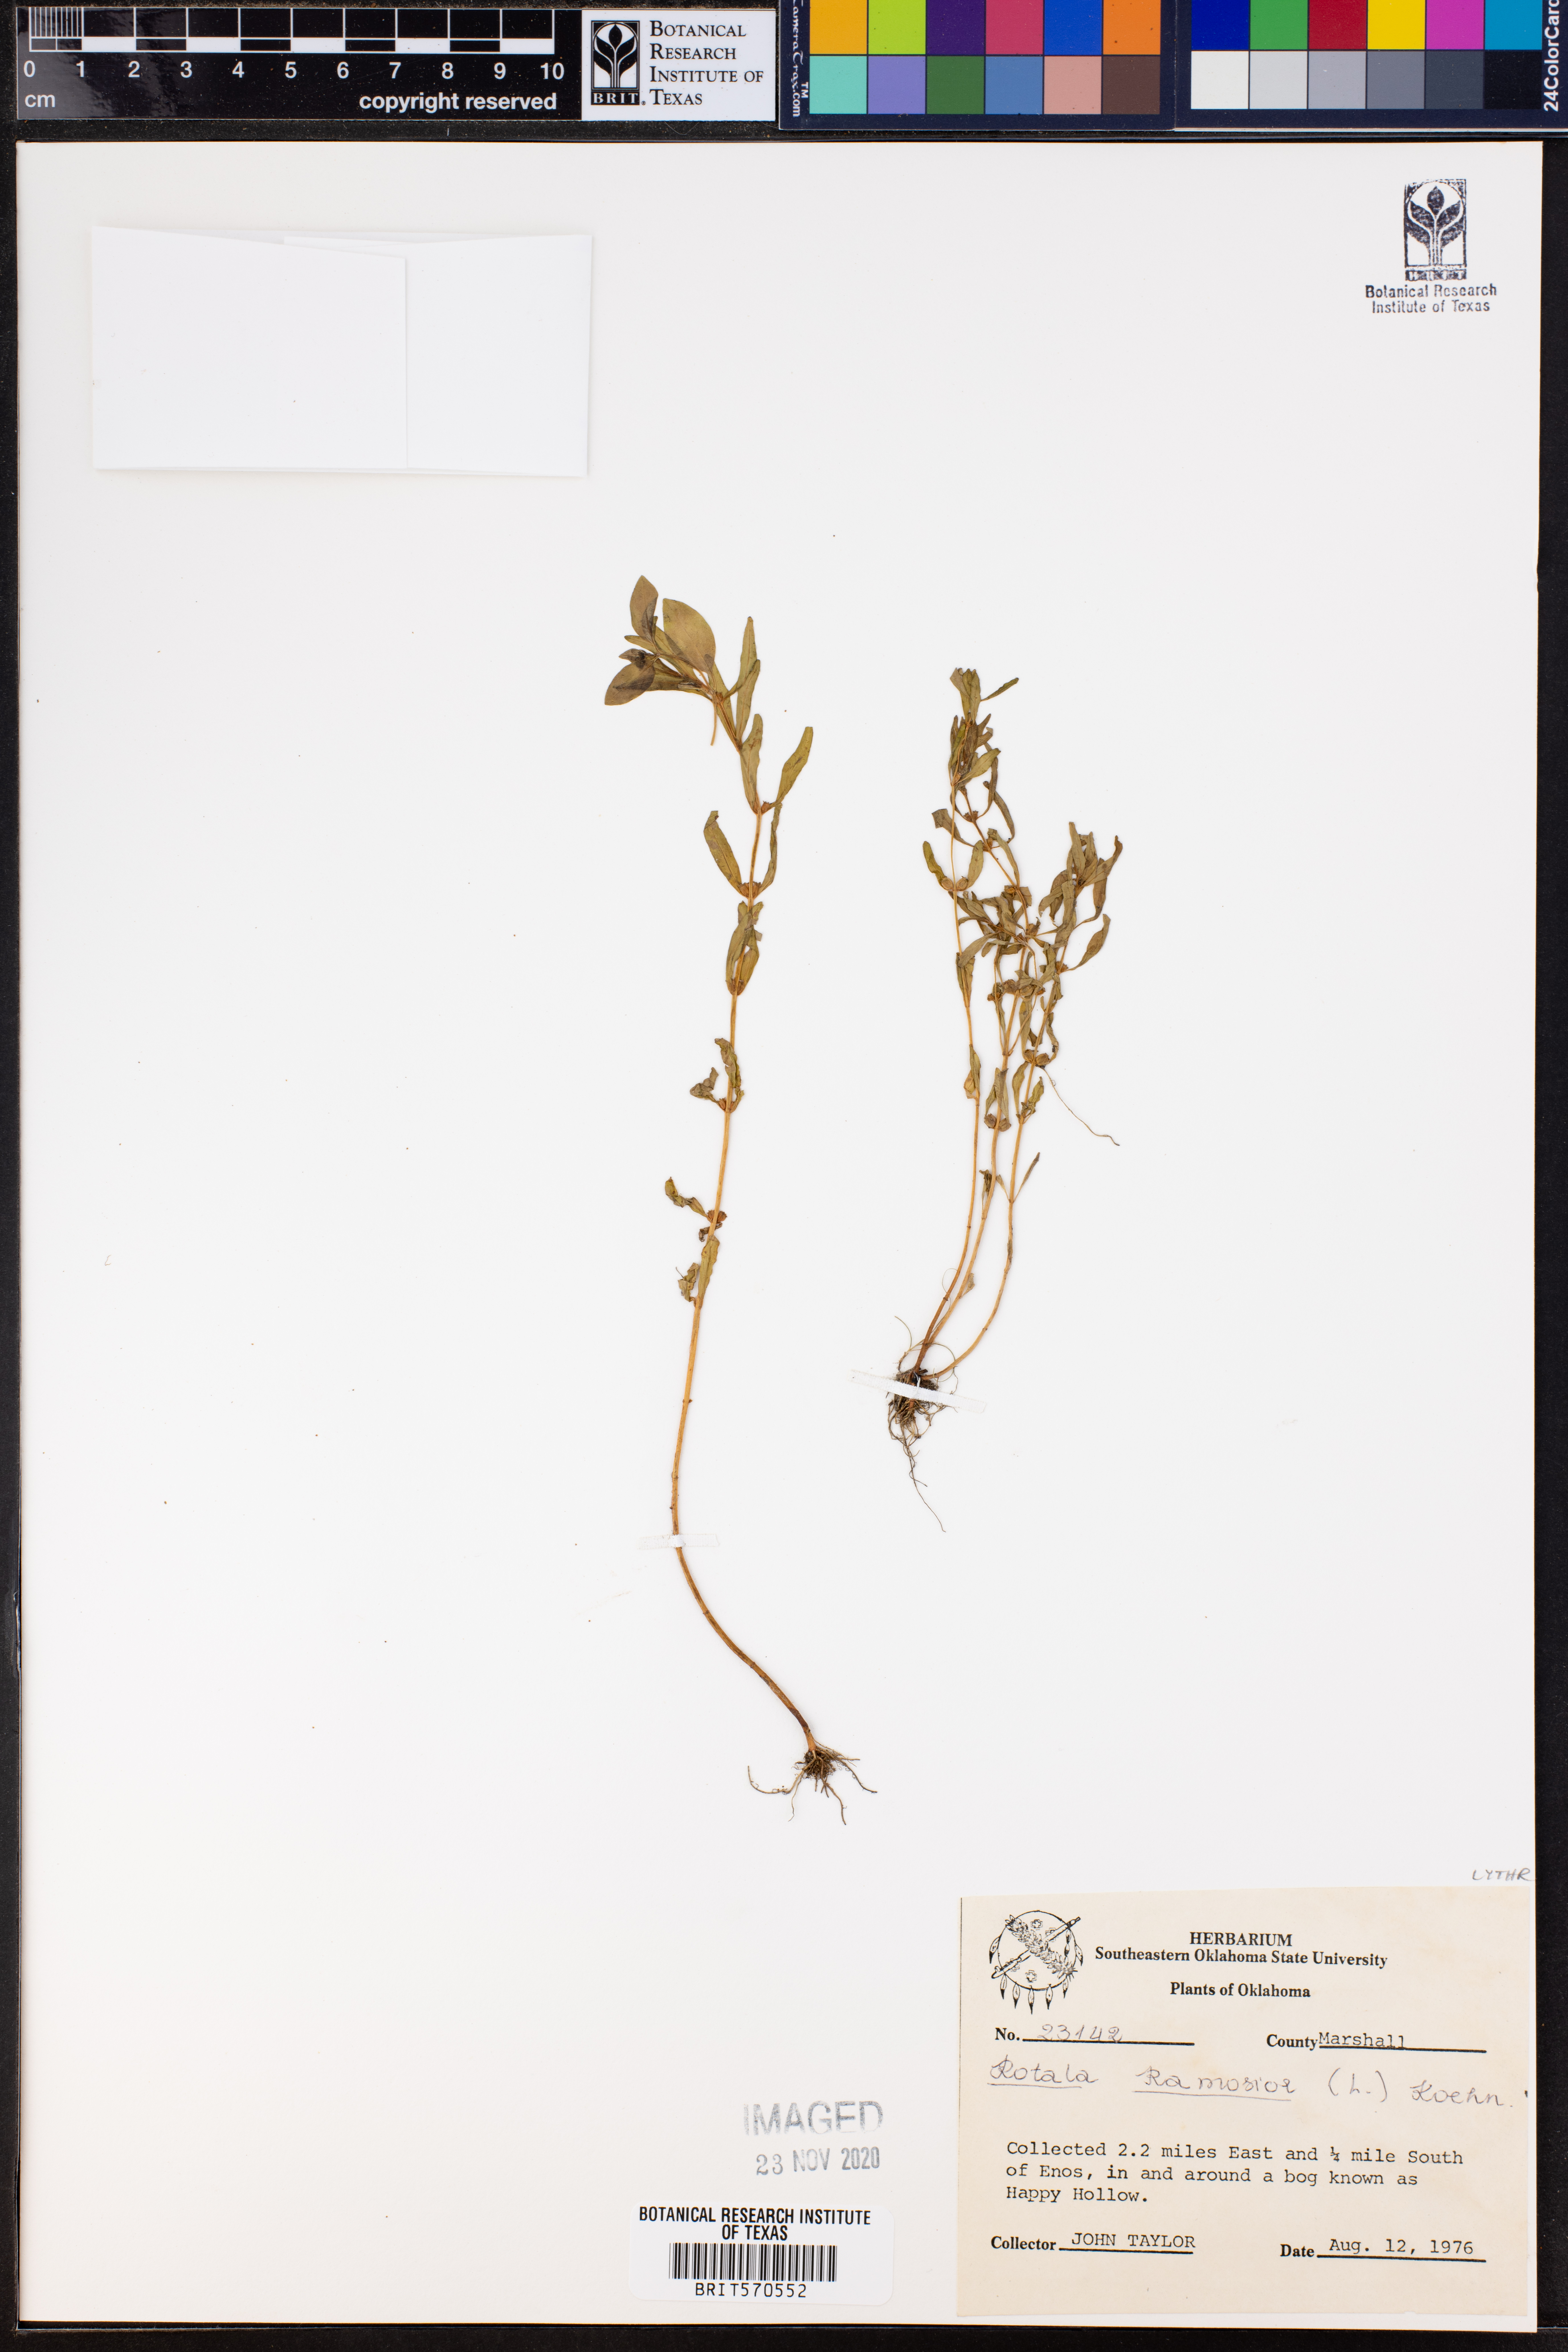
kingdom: Plantae
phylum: Tracheophyta
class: Magnoliopsida
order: Myrtales
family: Lythraceae
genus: Rotala
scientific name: Rotala ramosior
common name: Lowland rotala
